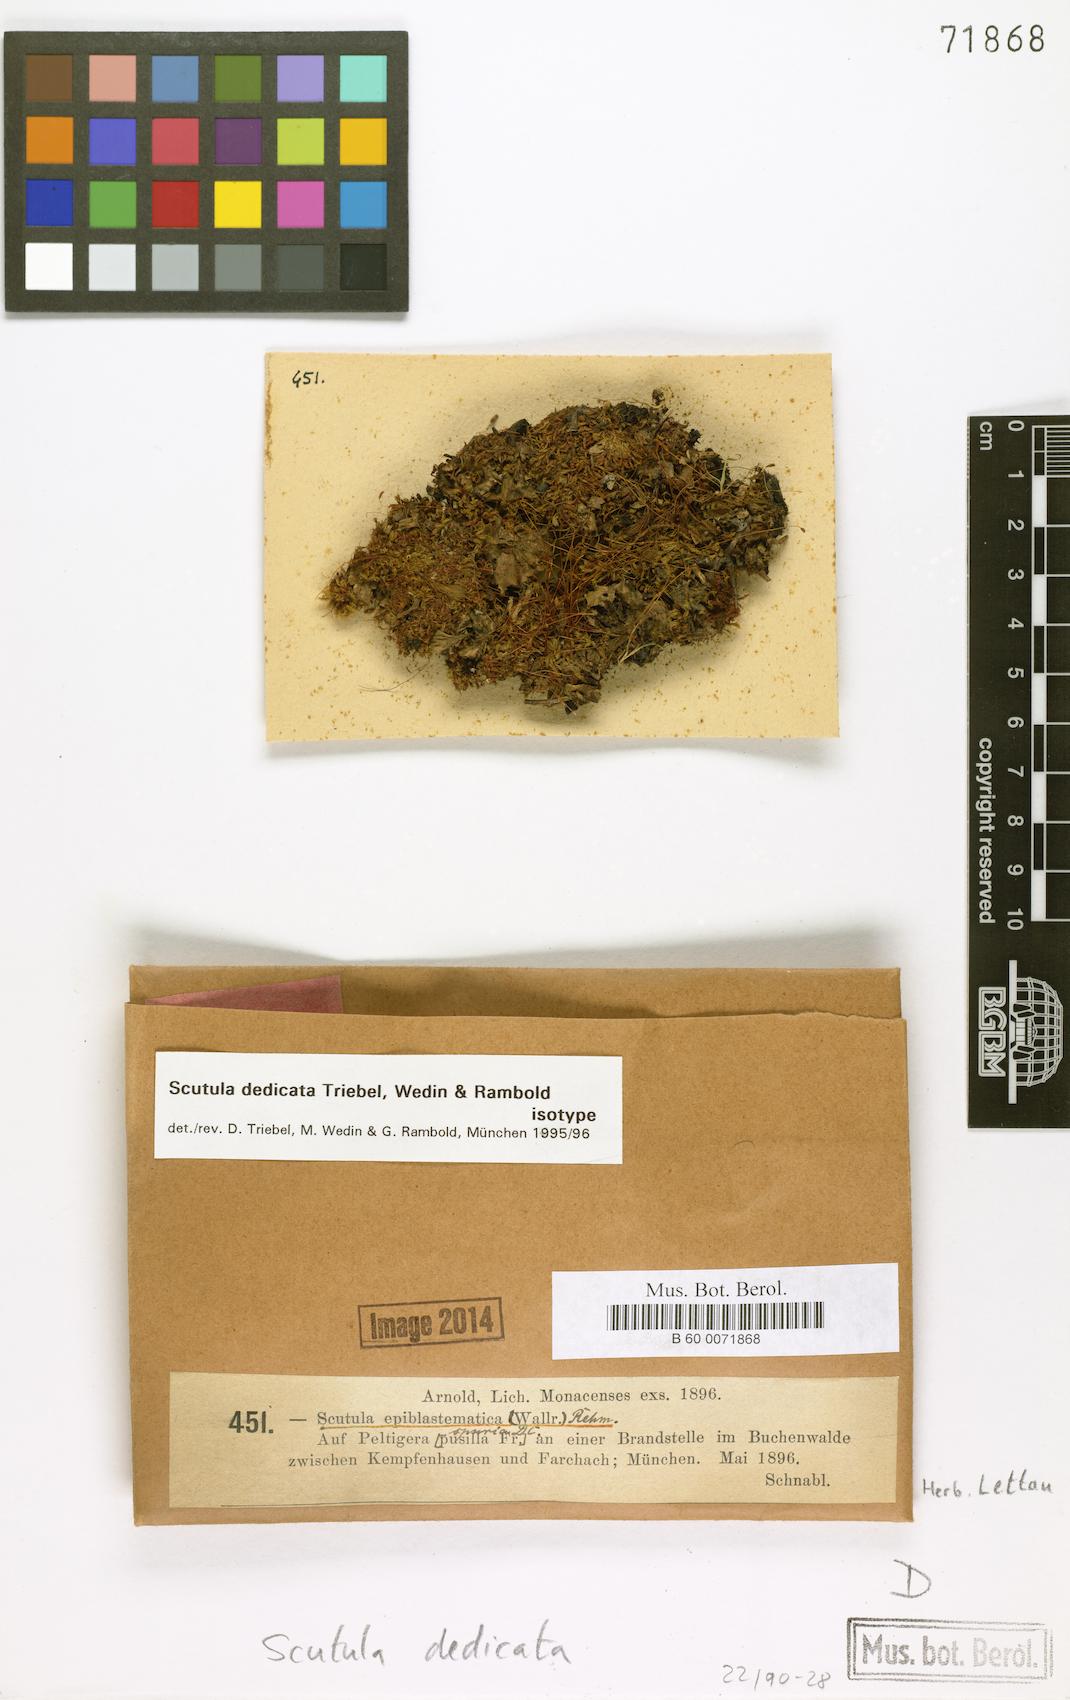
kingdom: Fungi
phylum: Ascomycota
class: Lecanoromycetes
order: Lecanorales
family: Byssolomataceae
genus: Scutula
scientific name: Scutula dedicata
